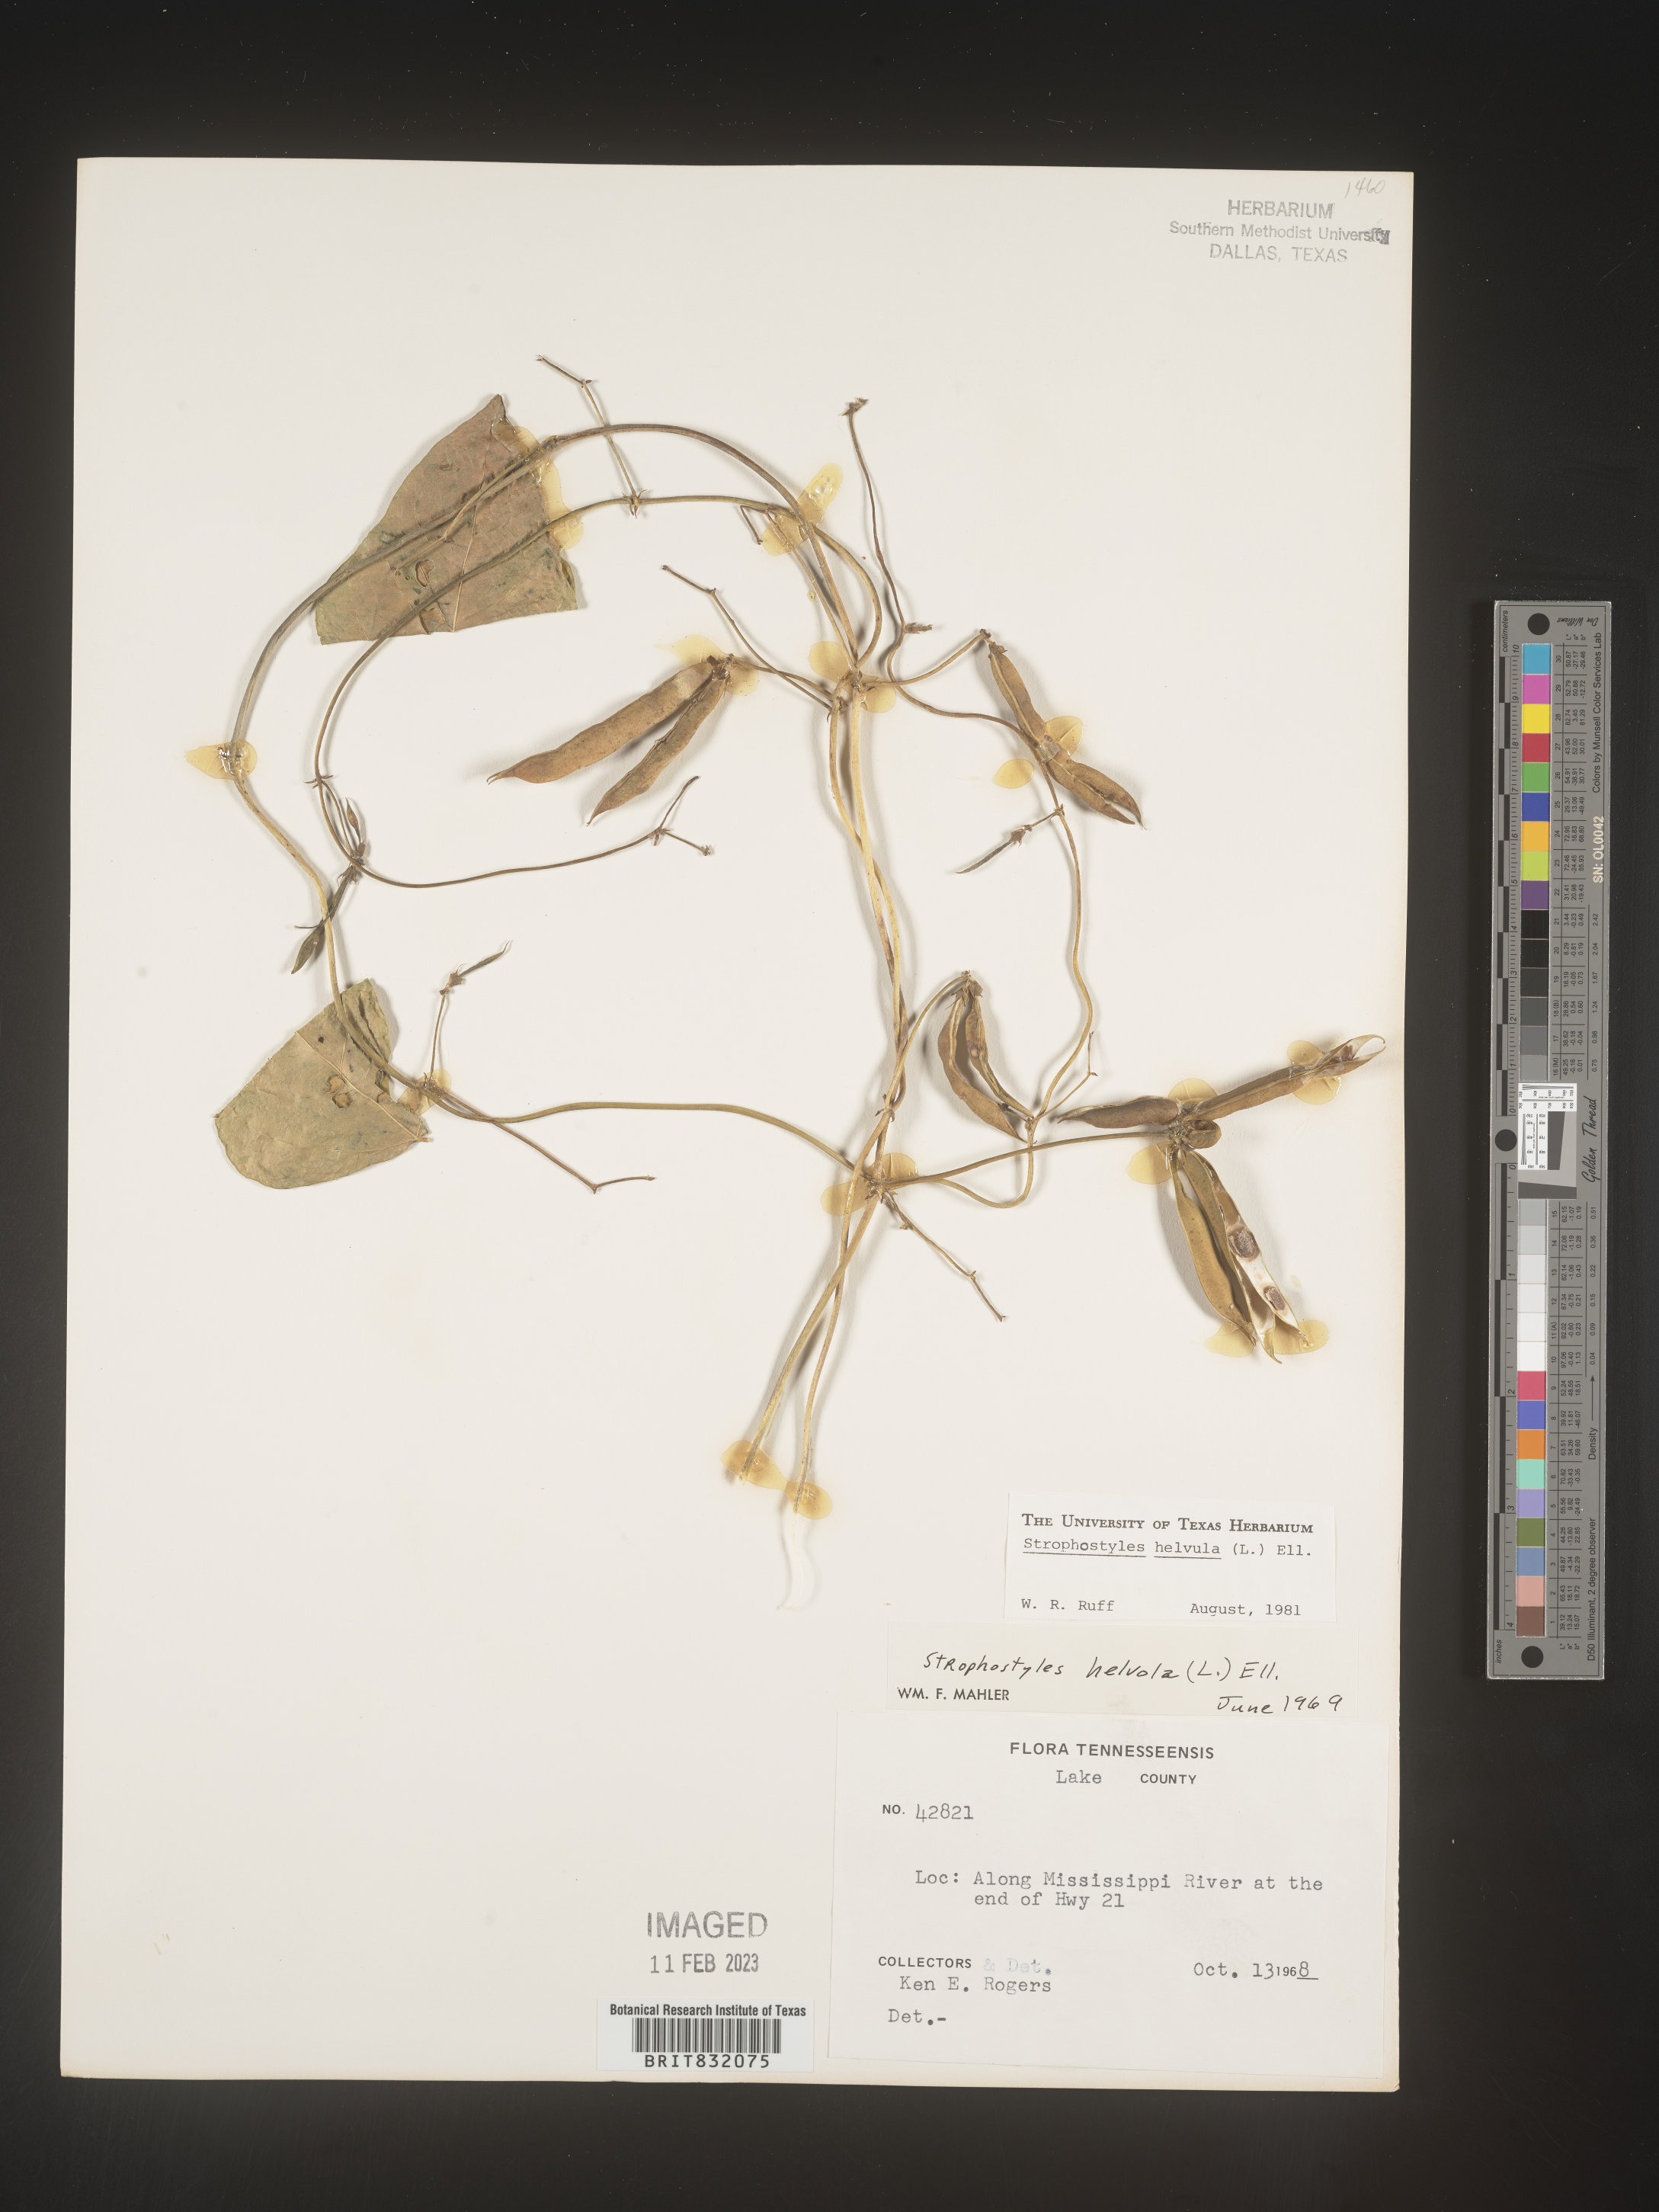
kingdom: Plantae
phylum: Tracheophyta
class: Magnoliopsida
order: Fabales
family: Fabaceae
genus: Strophostyles
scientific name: Strophostyles helvola
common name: Trailing wild bean
